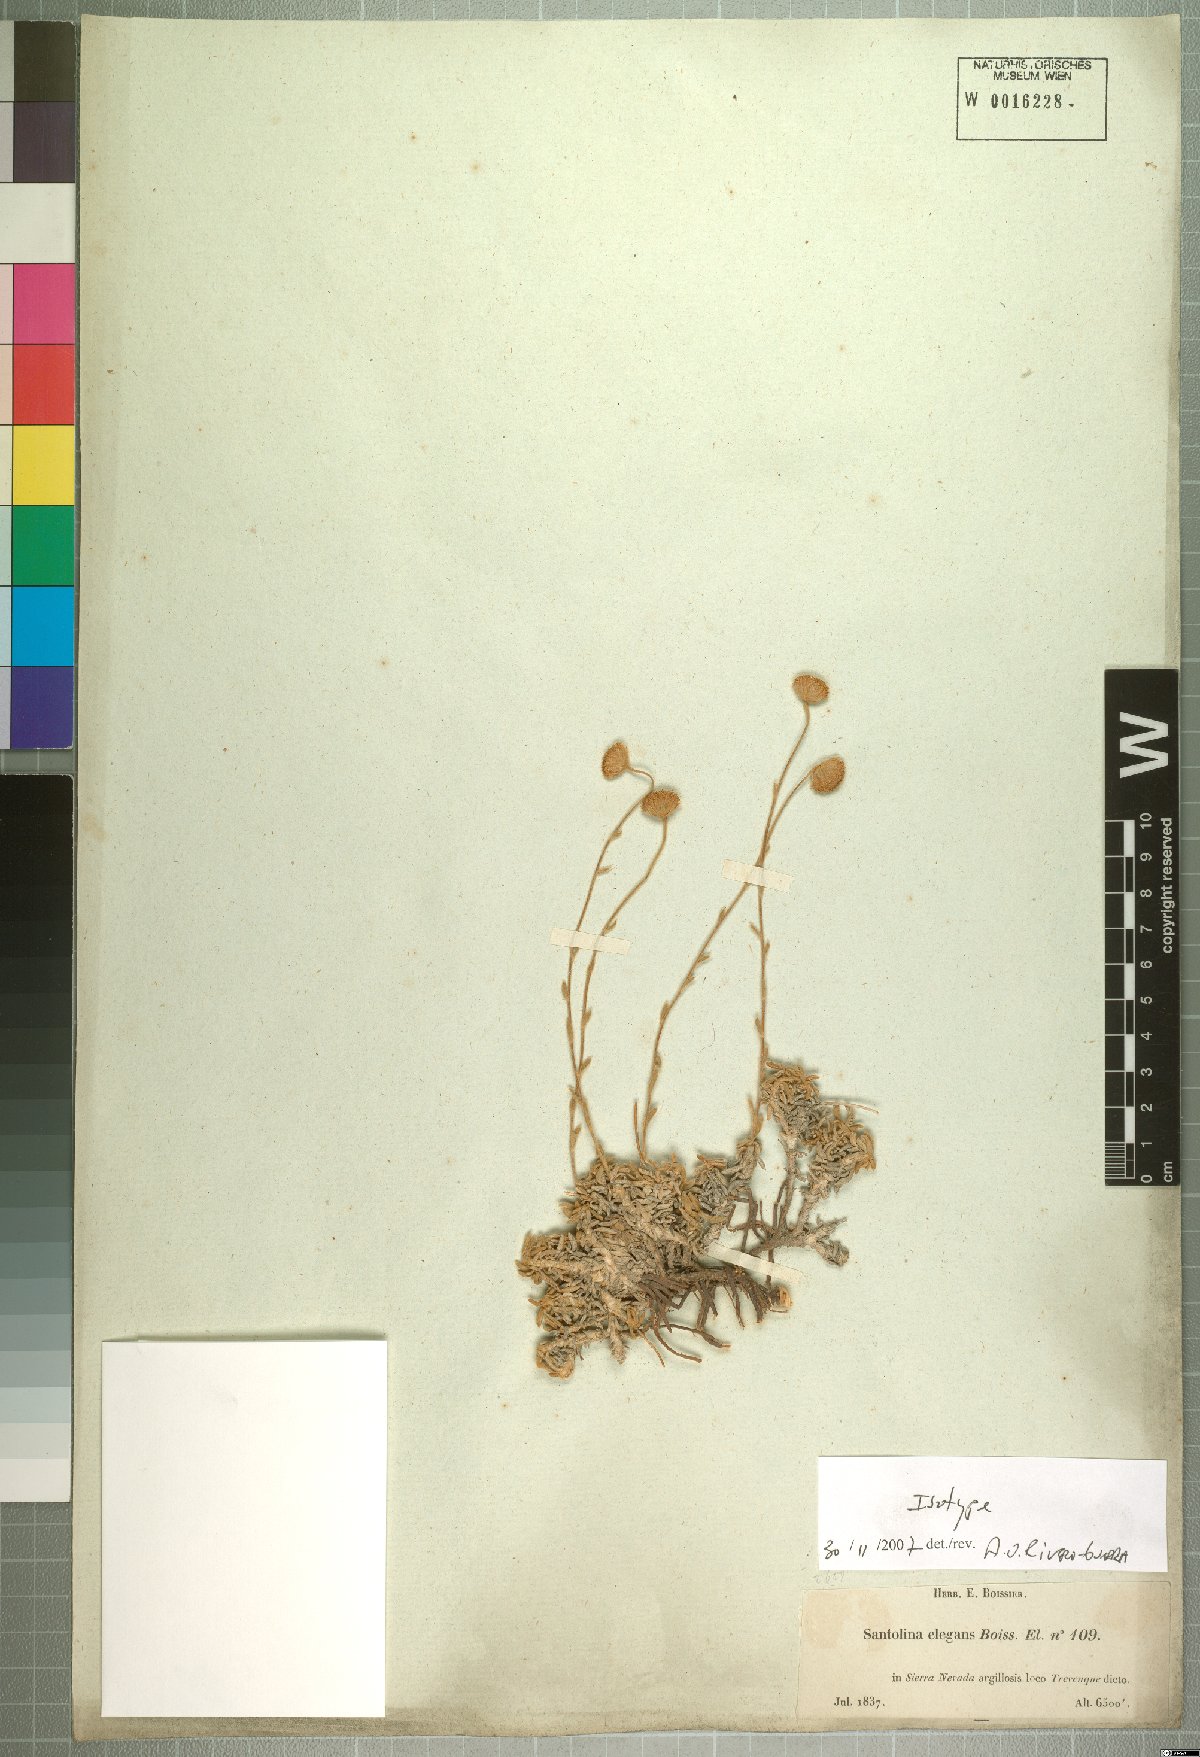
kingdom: Plantae
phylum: Tracheophyta
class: Magnoliopsida
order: Asterales
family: Asteraceae
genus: Santolina
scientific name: Santolina elegans
